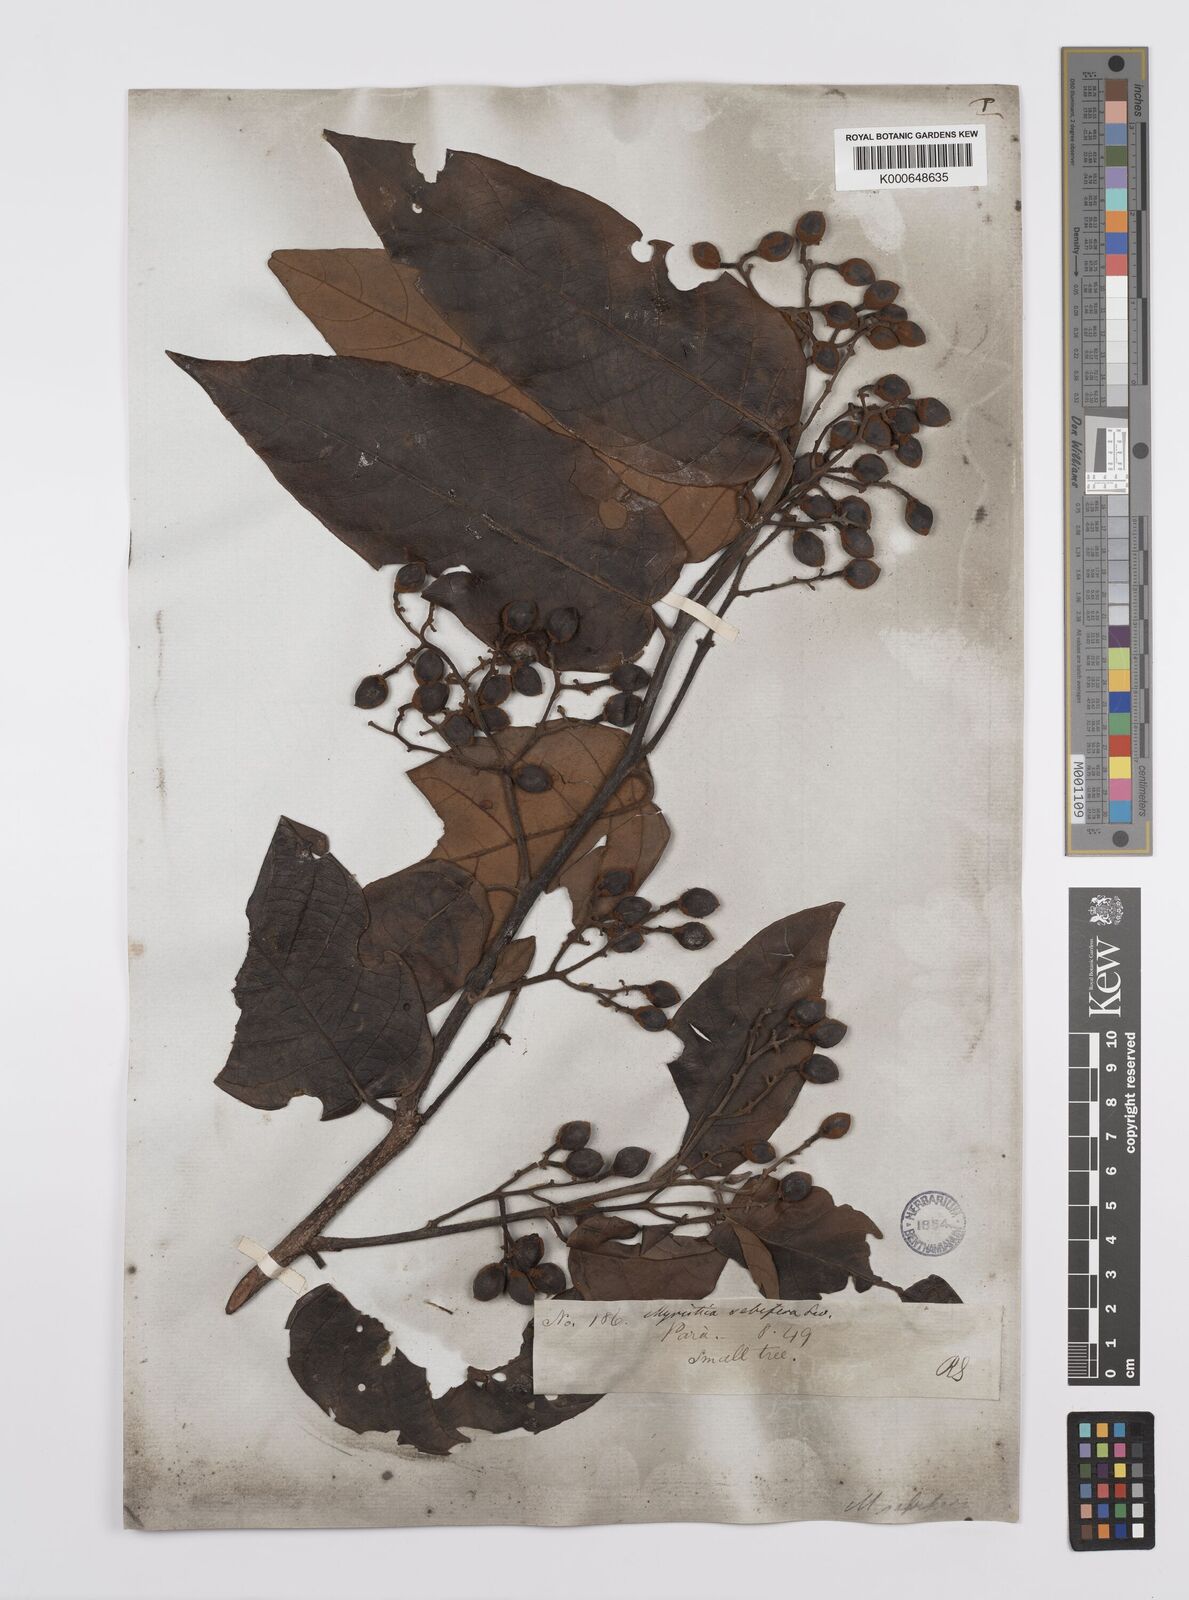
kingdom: Plantae
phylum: Tracheophyta
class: Magnoliopsida
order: Magnoliales
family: Myristicaceae
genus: Virola
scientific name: Virola sebifera
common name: Red ucuuba
